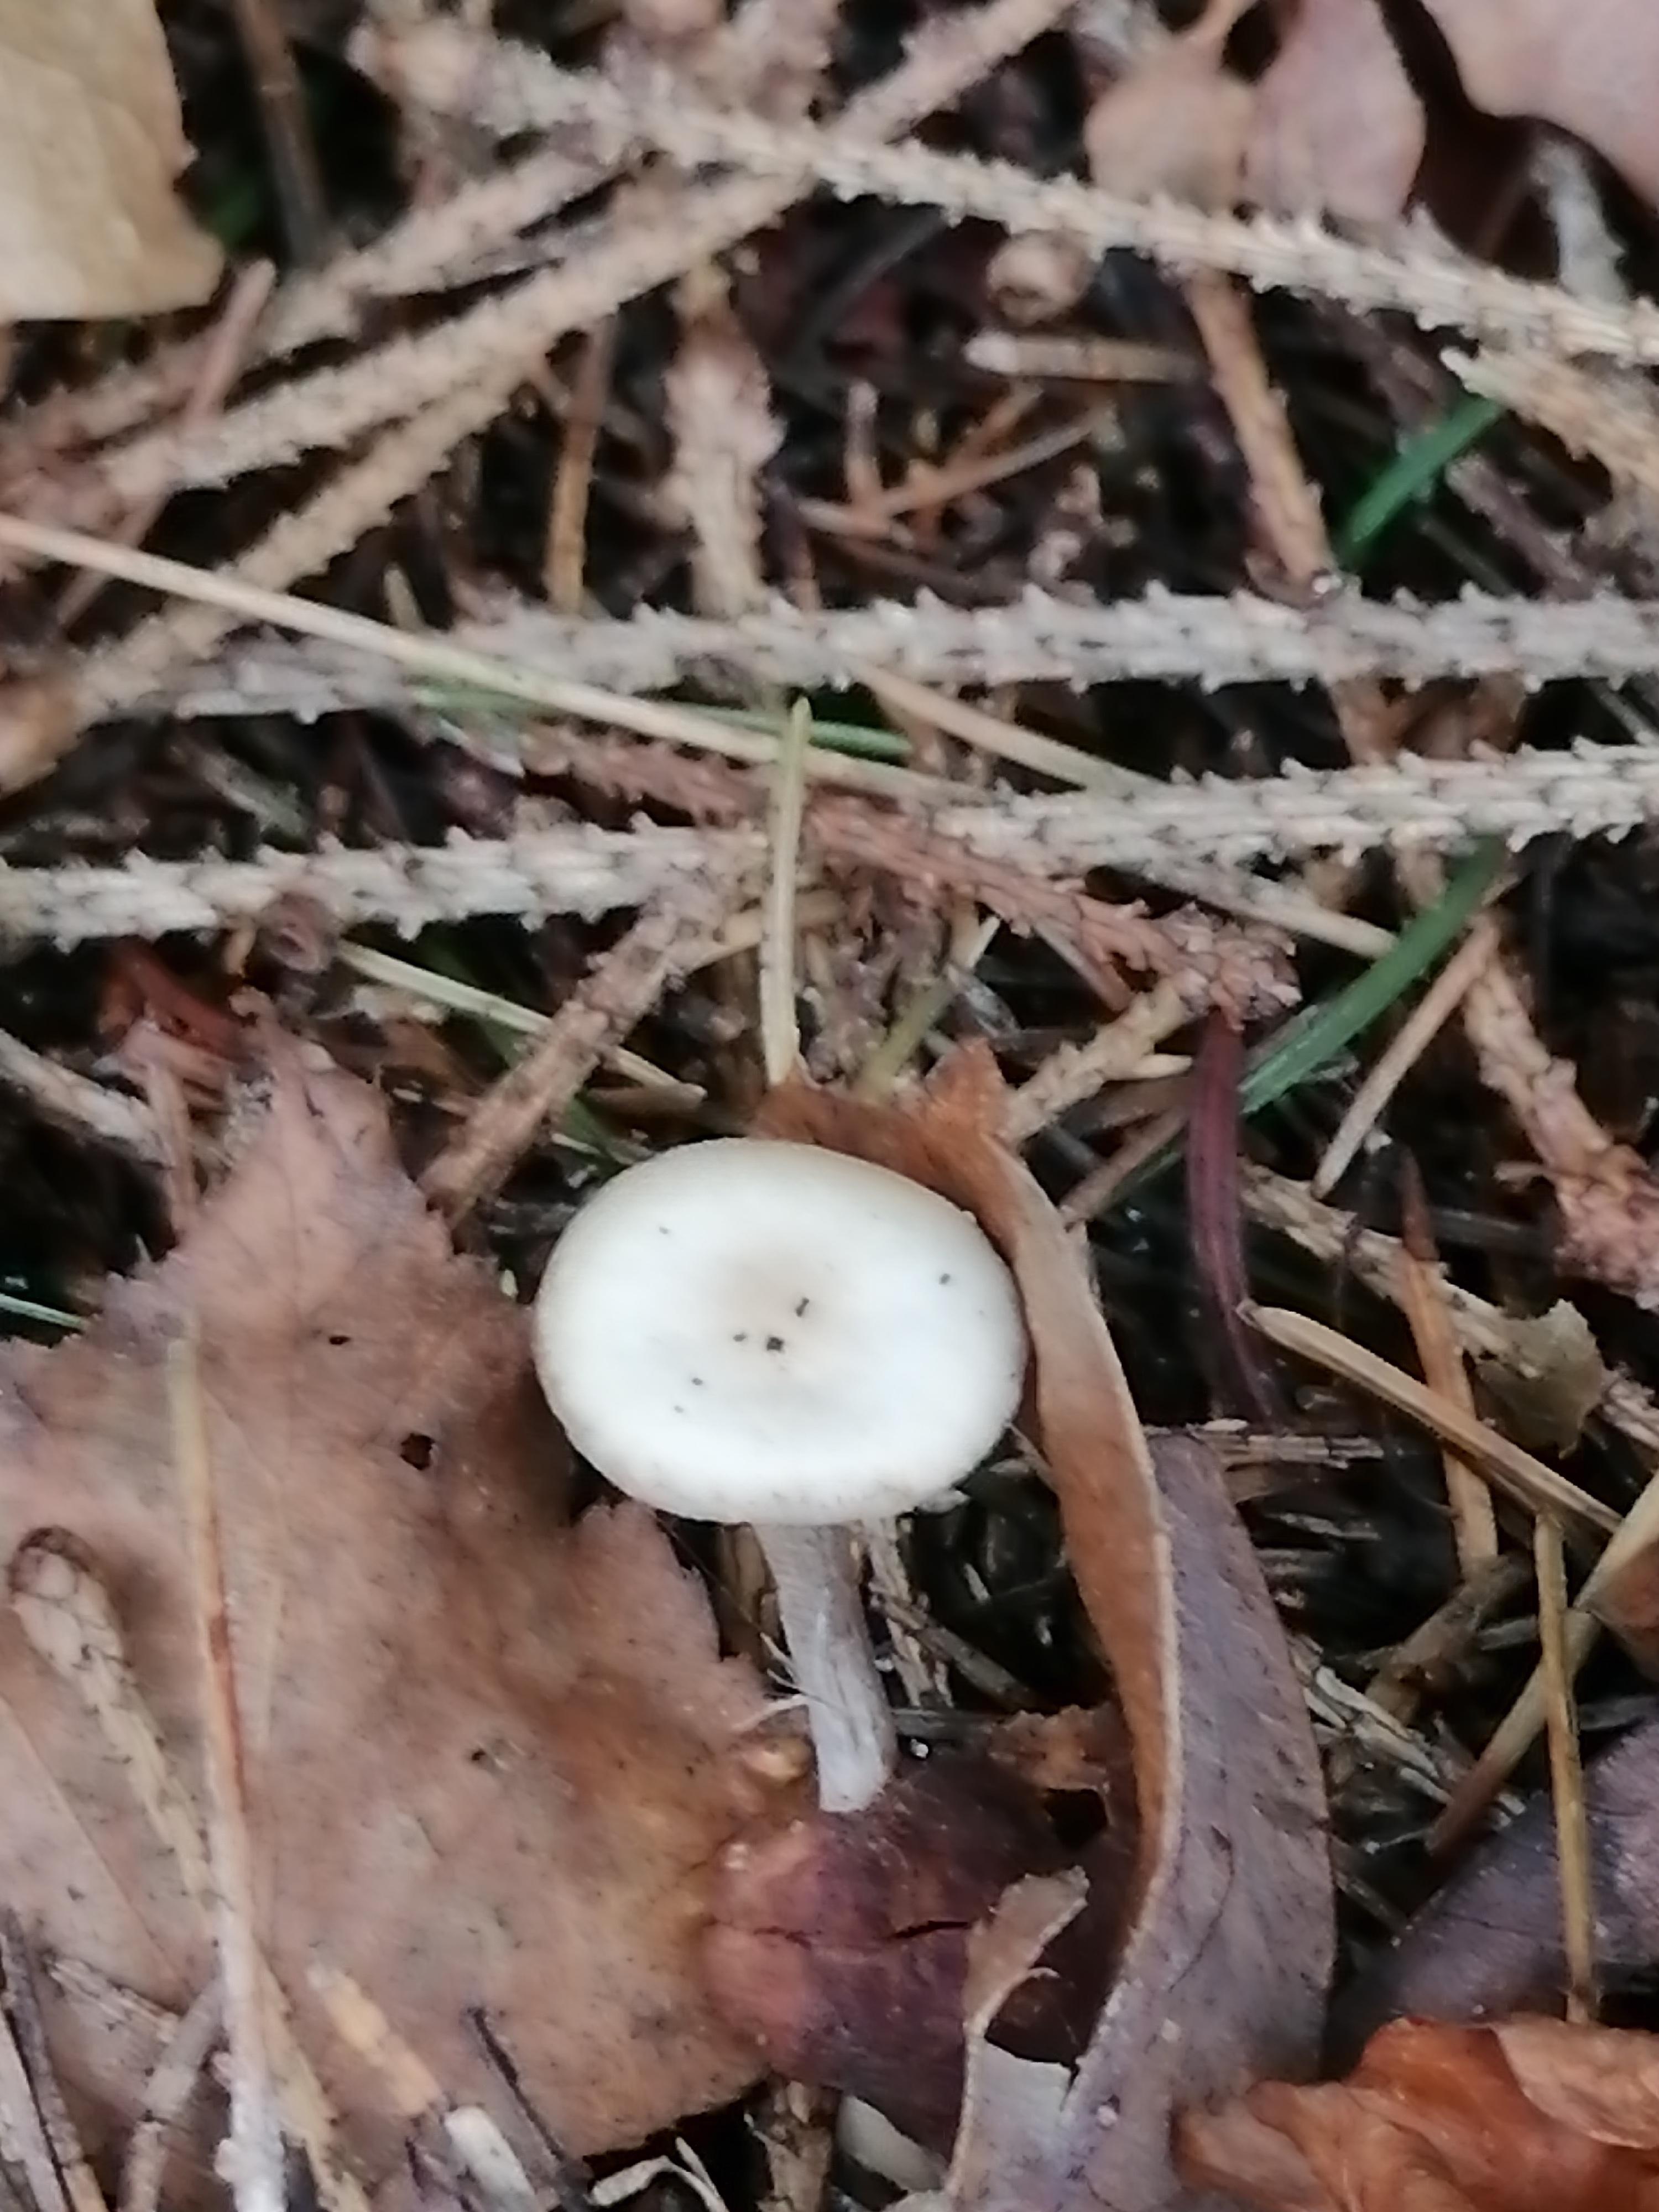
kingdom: Fungi
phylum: Basidiomycota
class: Agaricomycetes
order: Agaricales
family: Tricholomataceae
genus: Clitocybe
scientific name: Clitocybe
